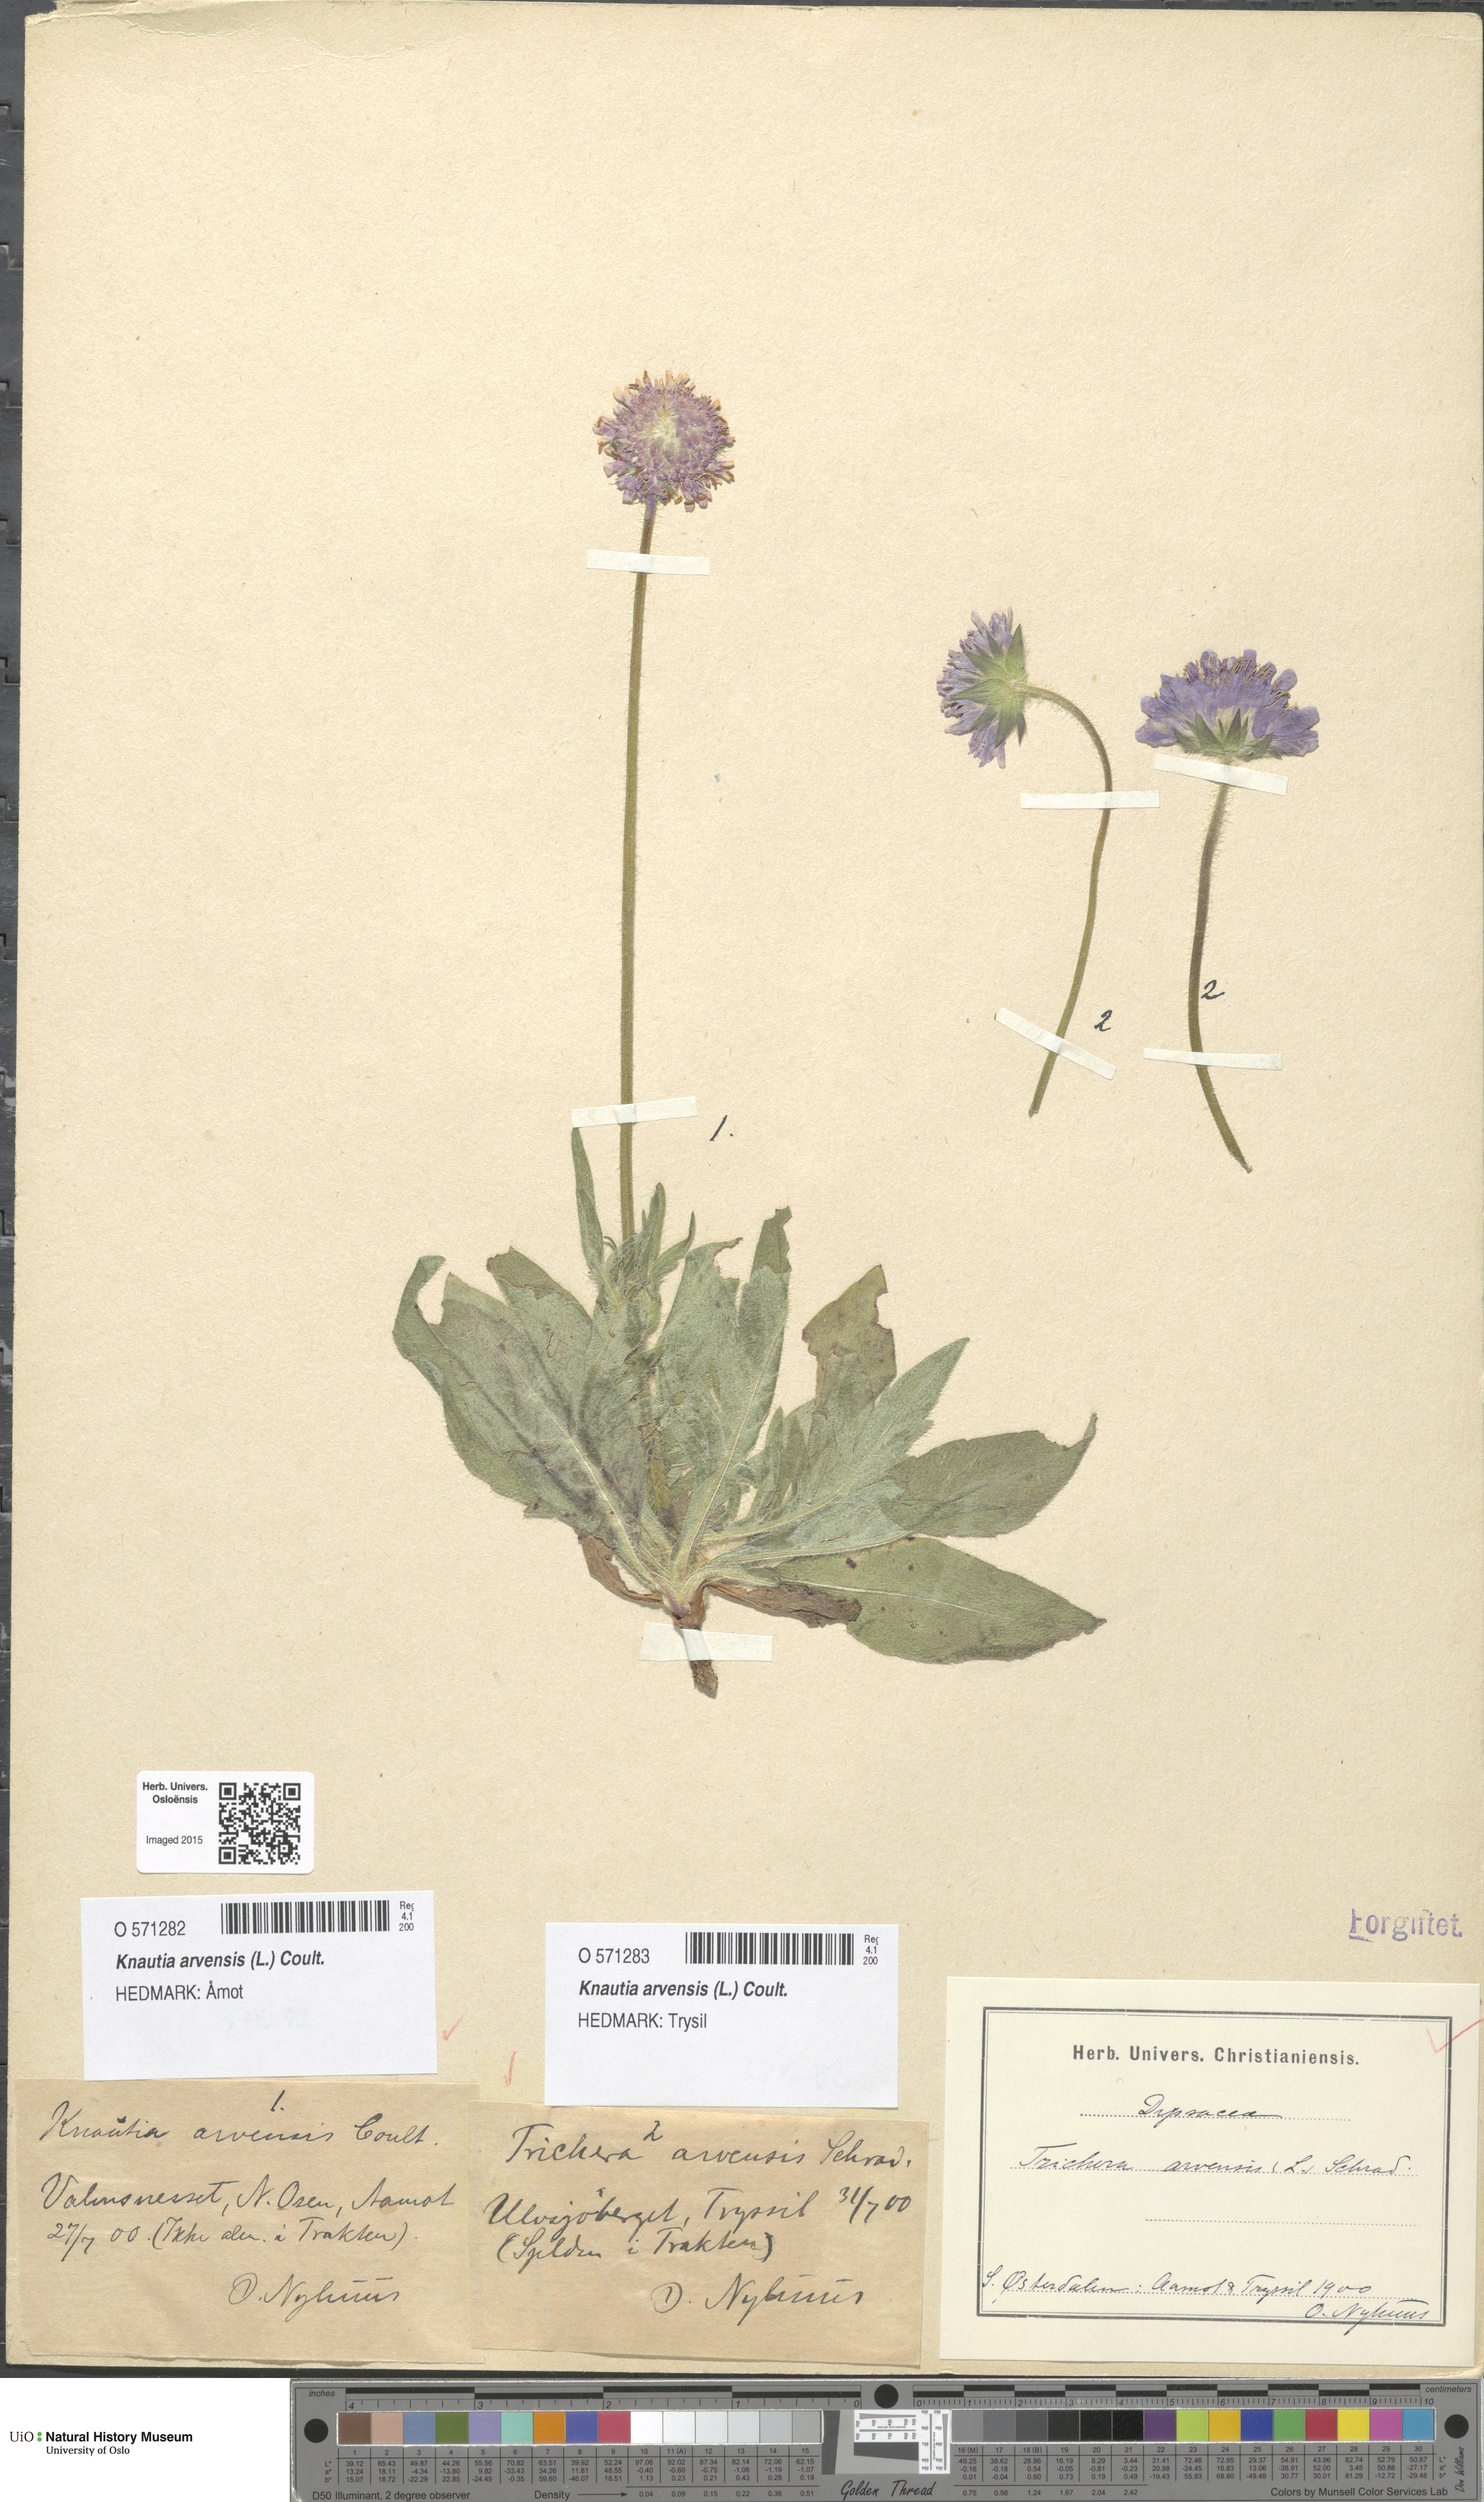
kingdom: Plantae
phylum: Tracheophyta
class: Magnoliopsida
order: Dipsacales
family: Caprifoliaceae
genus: Knautia
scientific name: Knautia arvensis
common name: Field scabiosa
